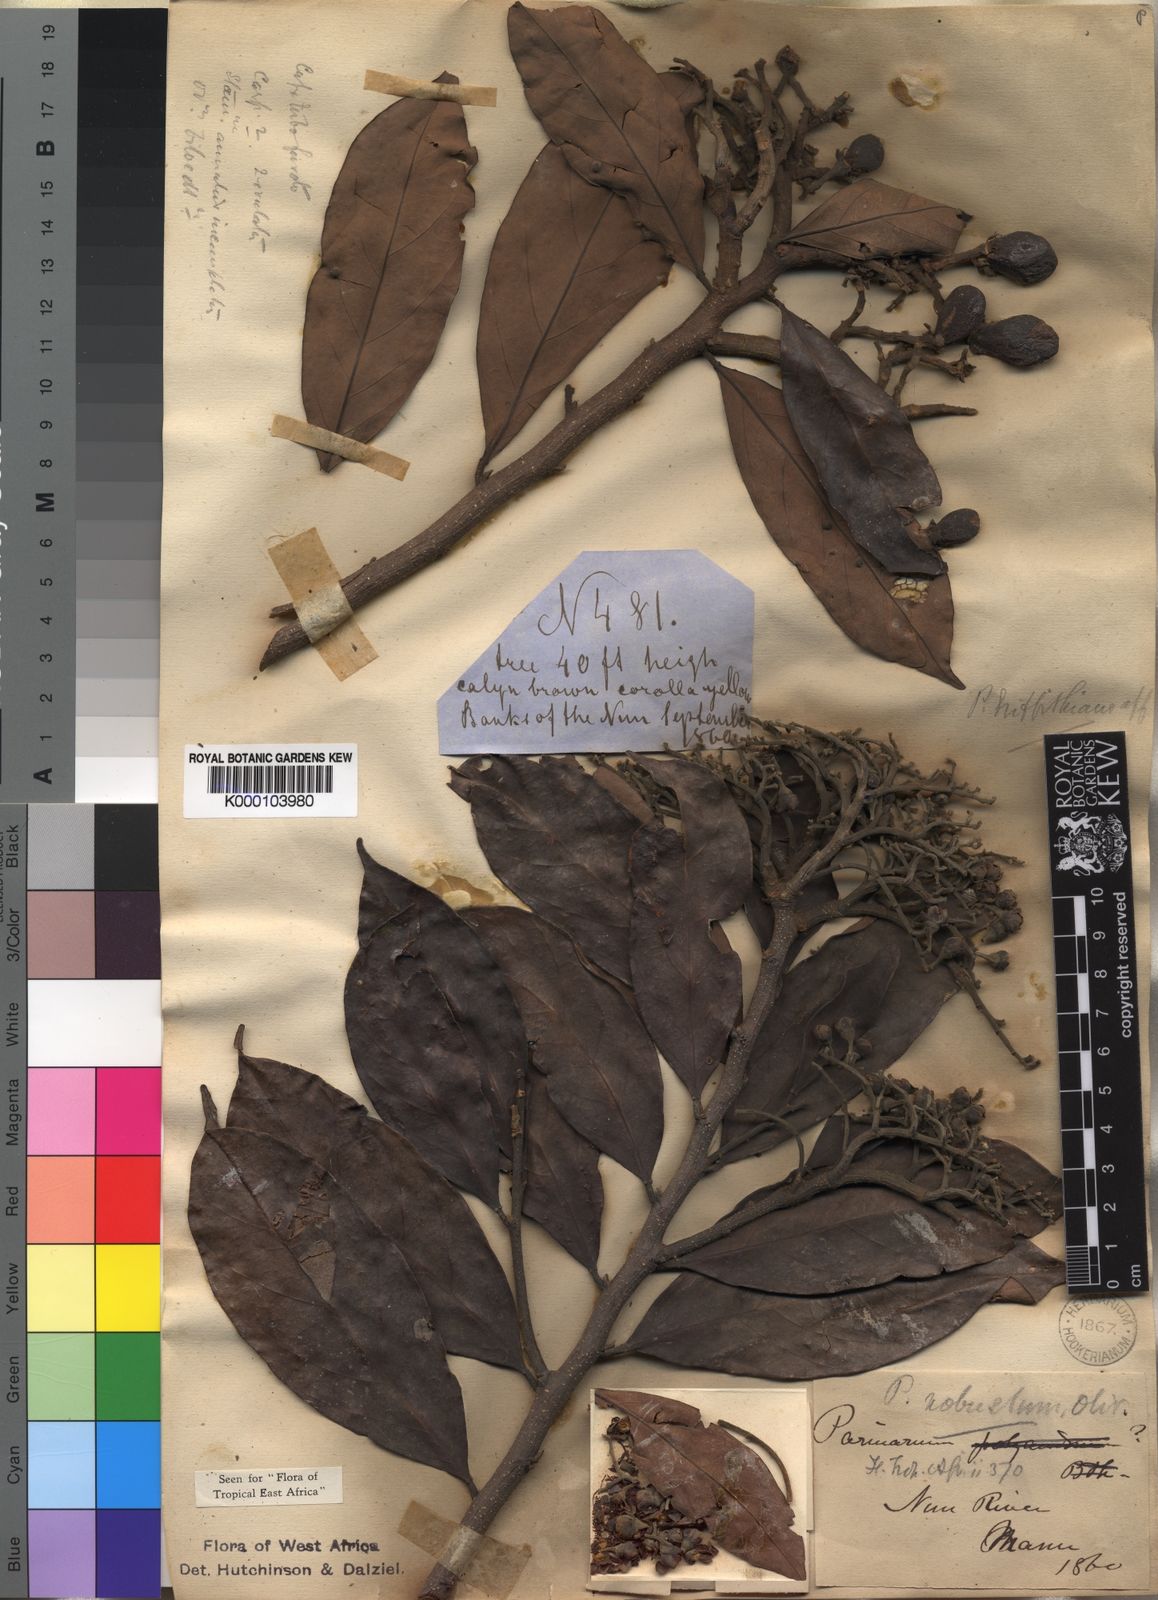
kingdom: Plantae
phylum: Tracheophyta
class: Magnoliopsida
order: Malpighiales
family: Chrysobalanaceae
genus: Maranthes
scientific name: Maranthes
